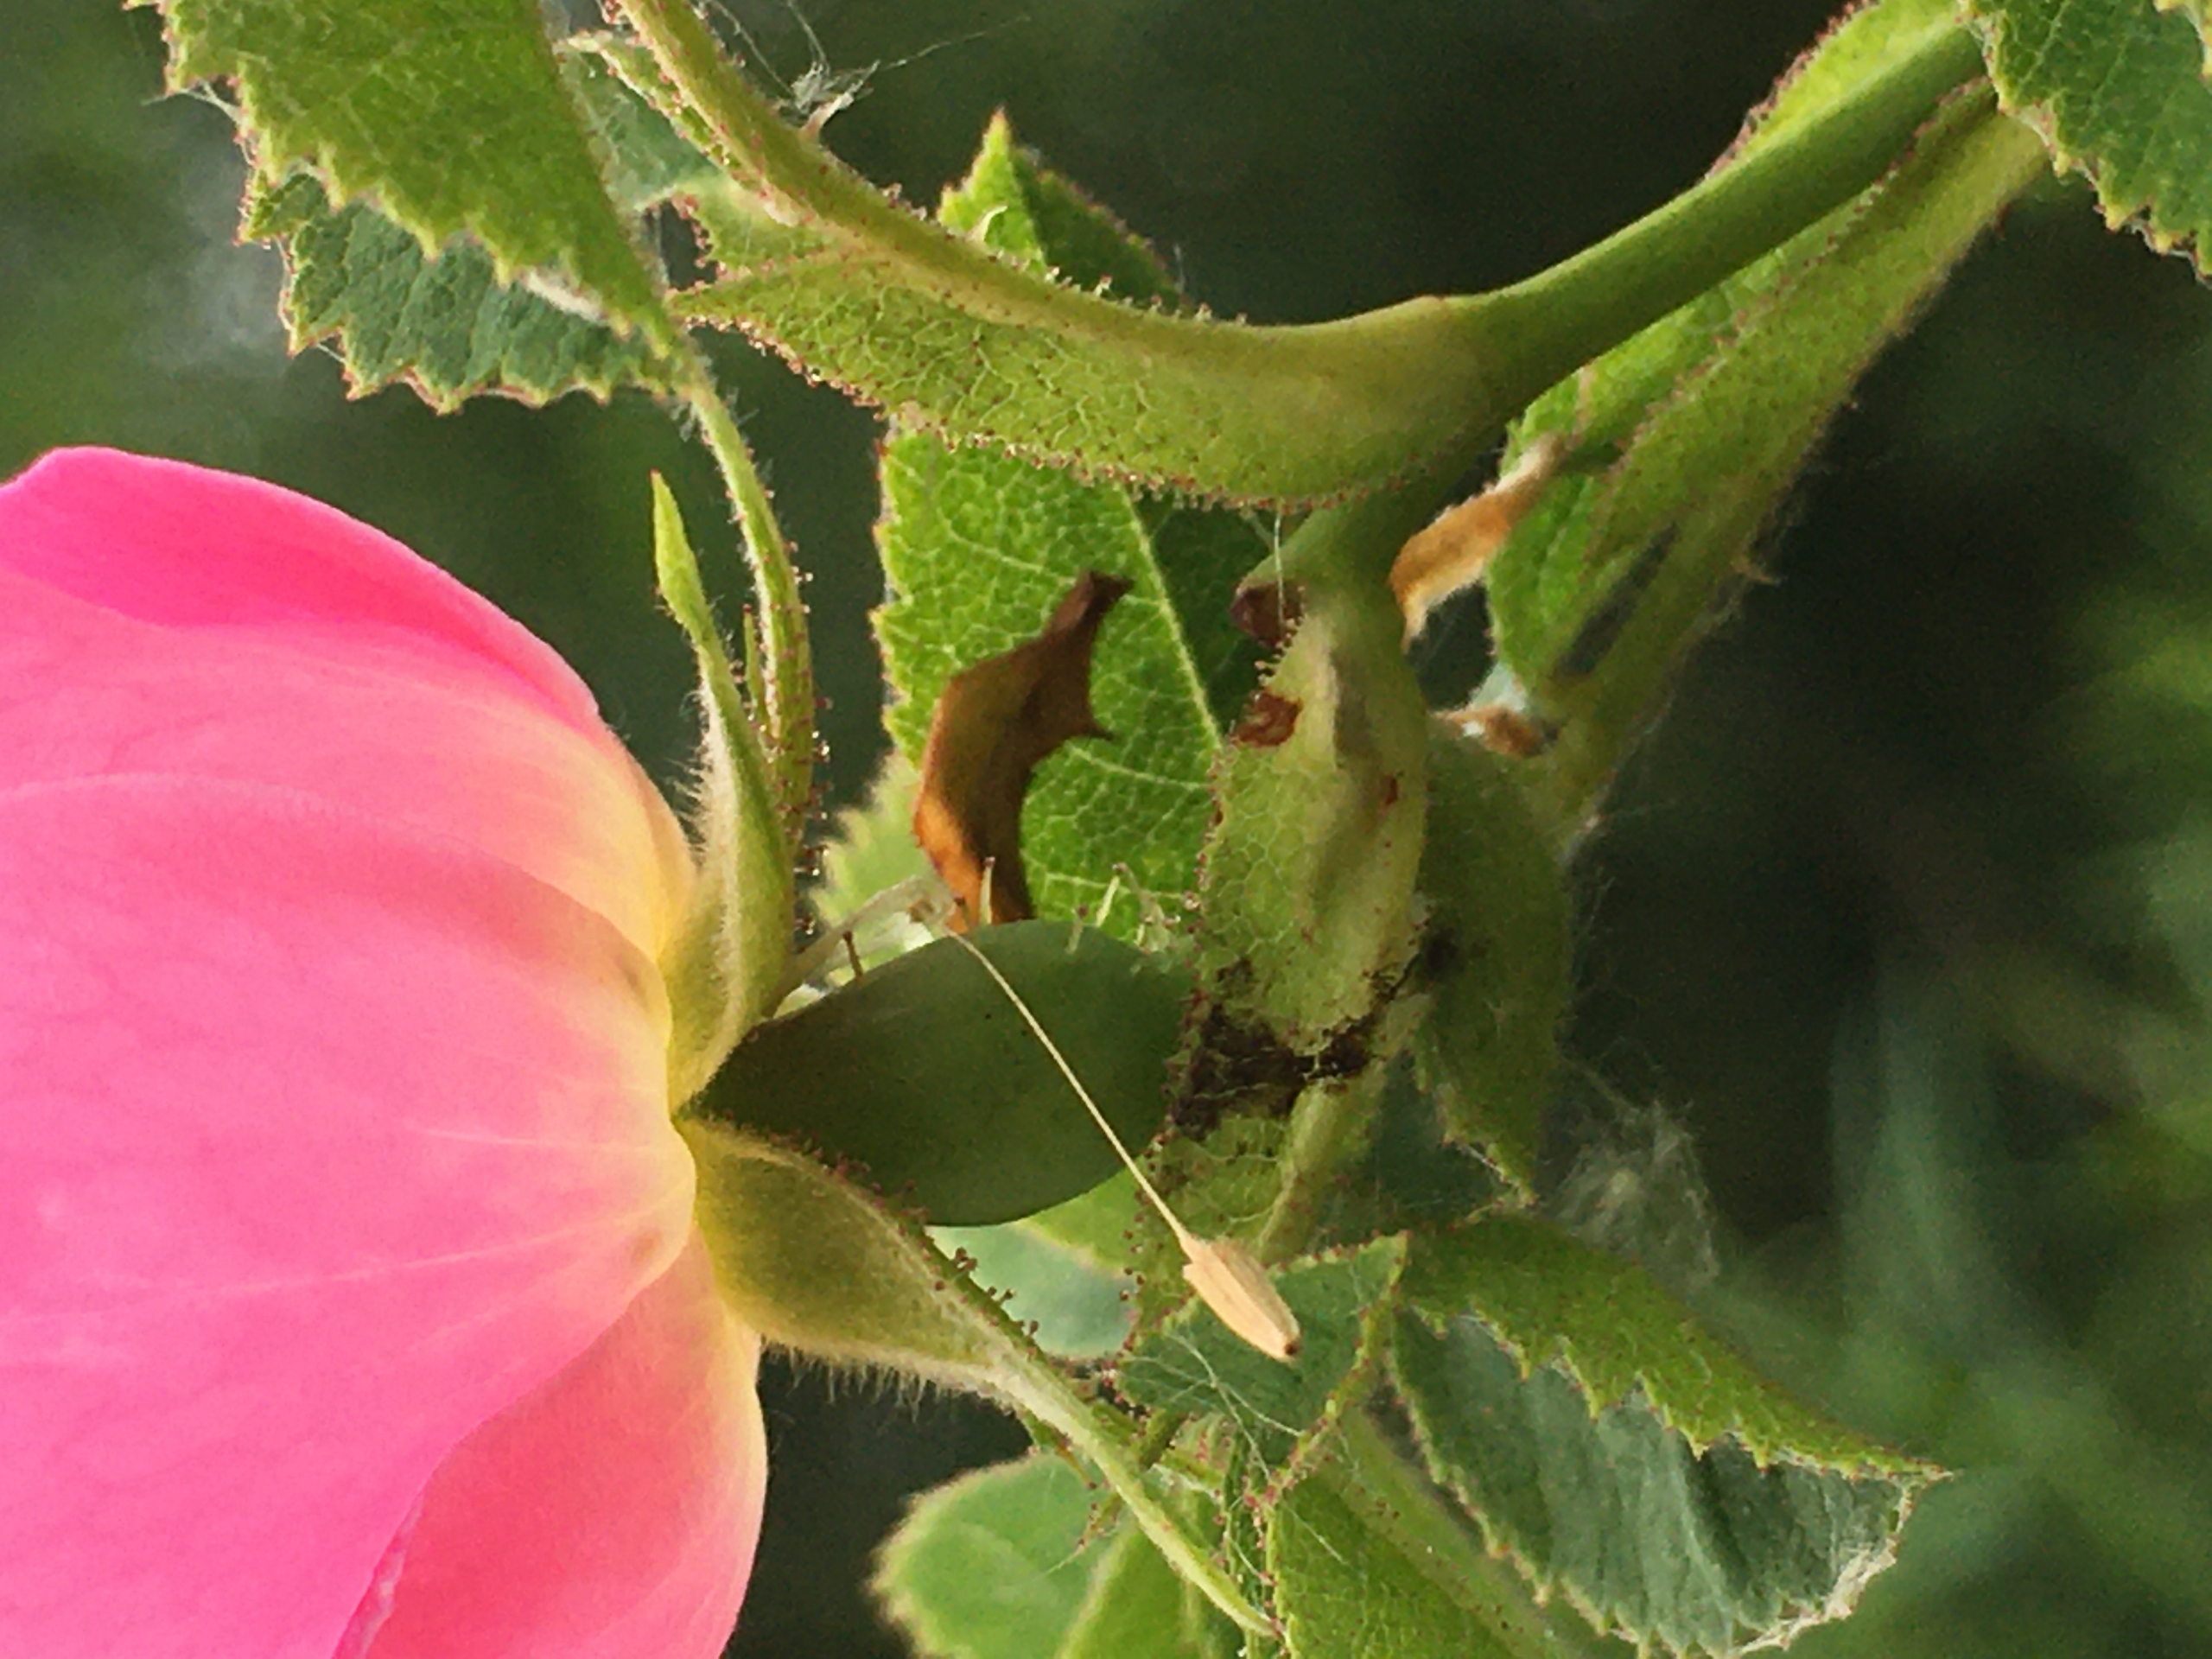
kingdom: Plantae
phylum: Tracheophyta
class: Magnoliopsida
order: Rosales
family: Rosaceae
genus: Rosa
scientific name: Rosa rubiginosa
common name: Æble-rose
